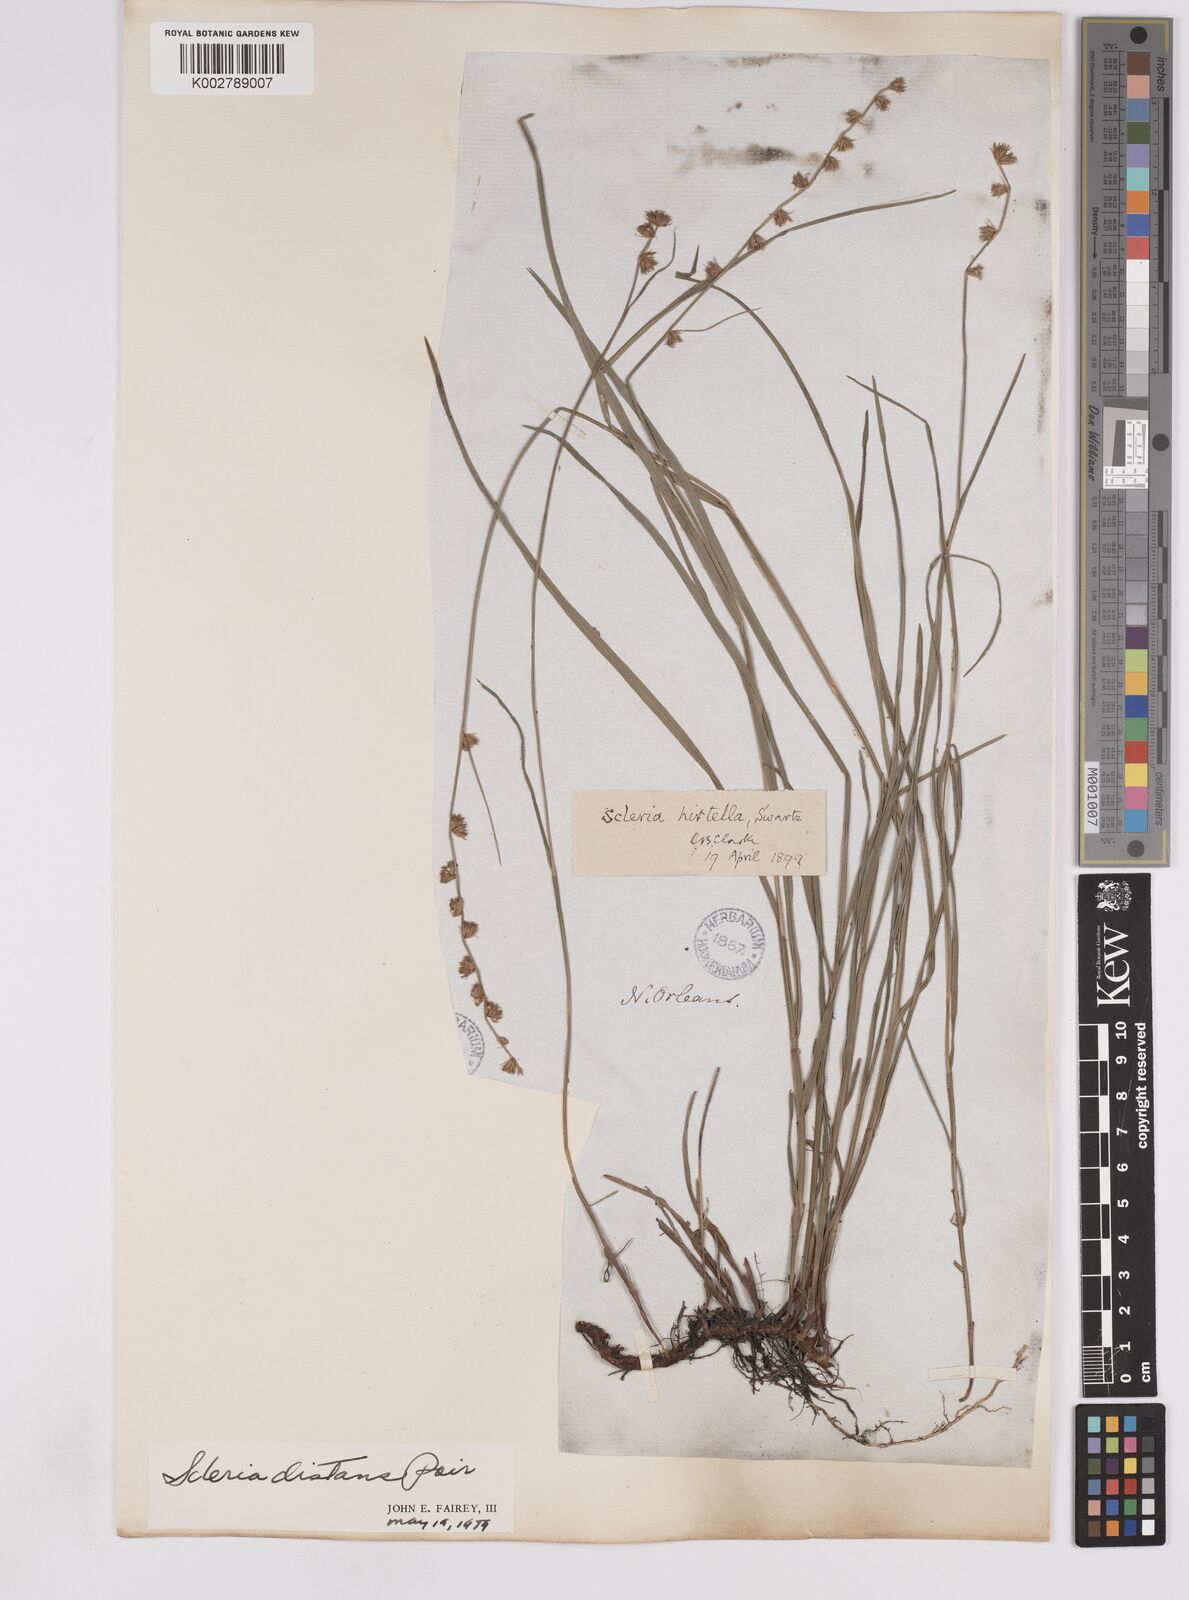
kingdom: Plantae
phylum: Tracheophyta
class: Liliopsida
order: Poales
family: Cyperaceae
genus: Scleria
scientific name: Scleria distans
